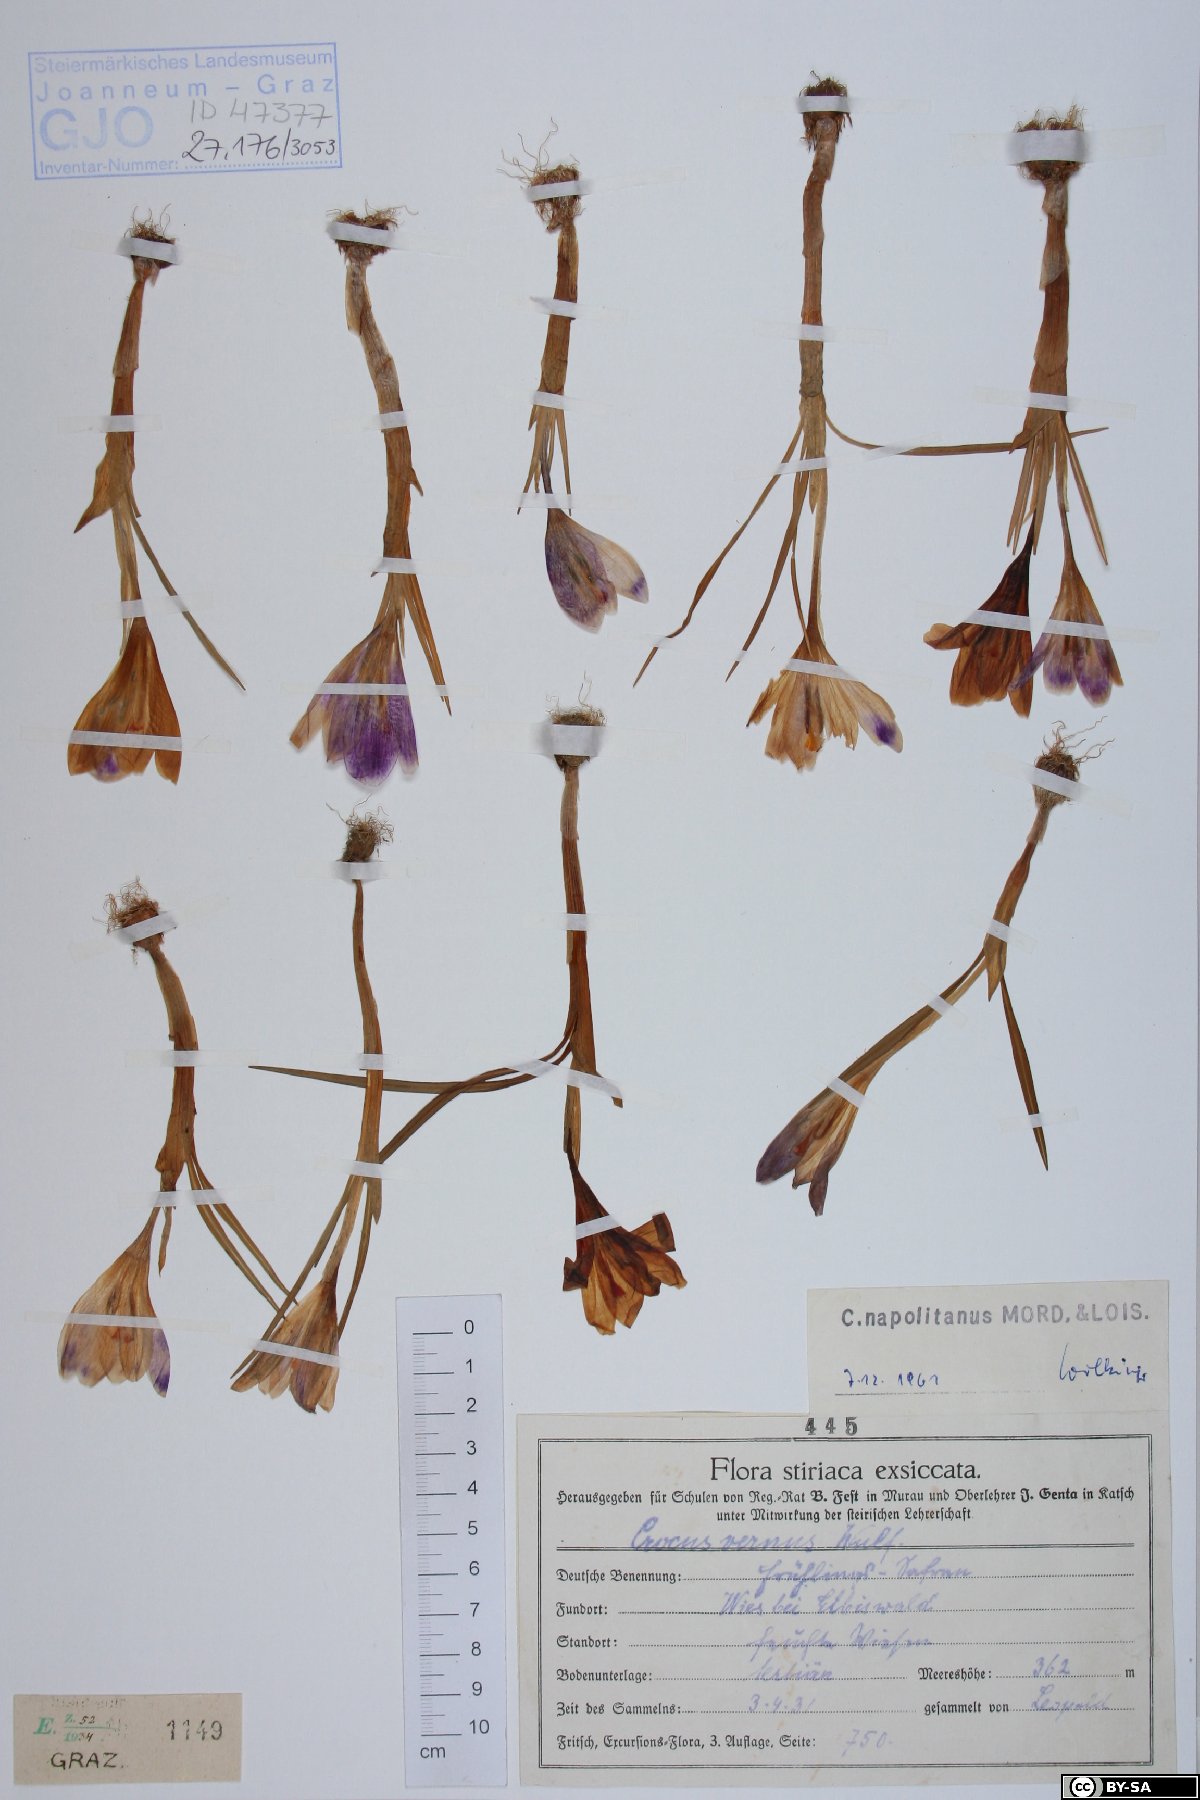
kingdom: Plantae
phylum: Tracheophyta
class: Liliopsida
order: Asparagales
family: Iridaceae
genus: Crocus
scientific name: Crocus vernus
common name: Spring crocus
